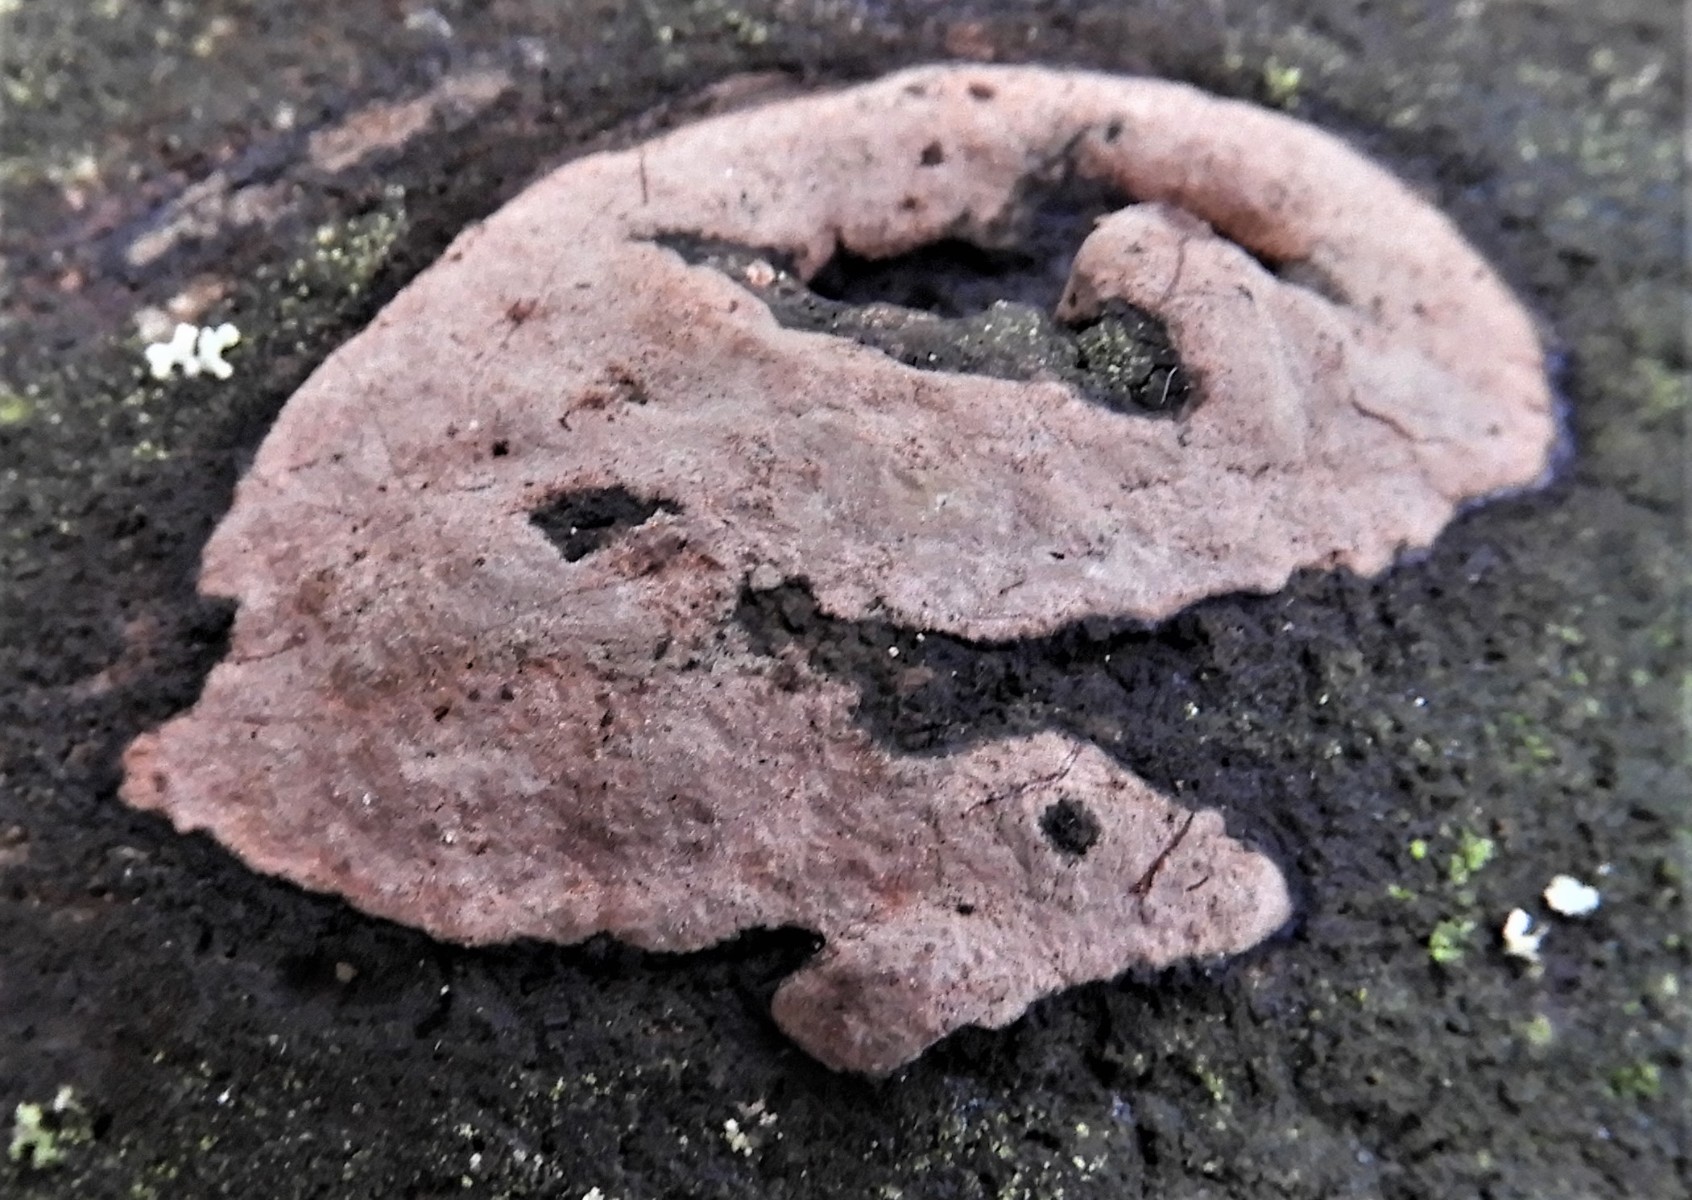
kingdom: Fungi
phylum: Ascomycota
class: Sordariomycetes
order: Xylariales
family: Hypoxylaceae
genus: Hypoxylon
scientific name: Hypoxylon petriniae
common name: nedsænket kulbær
